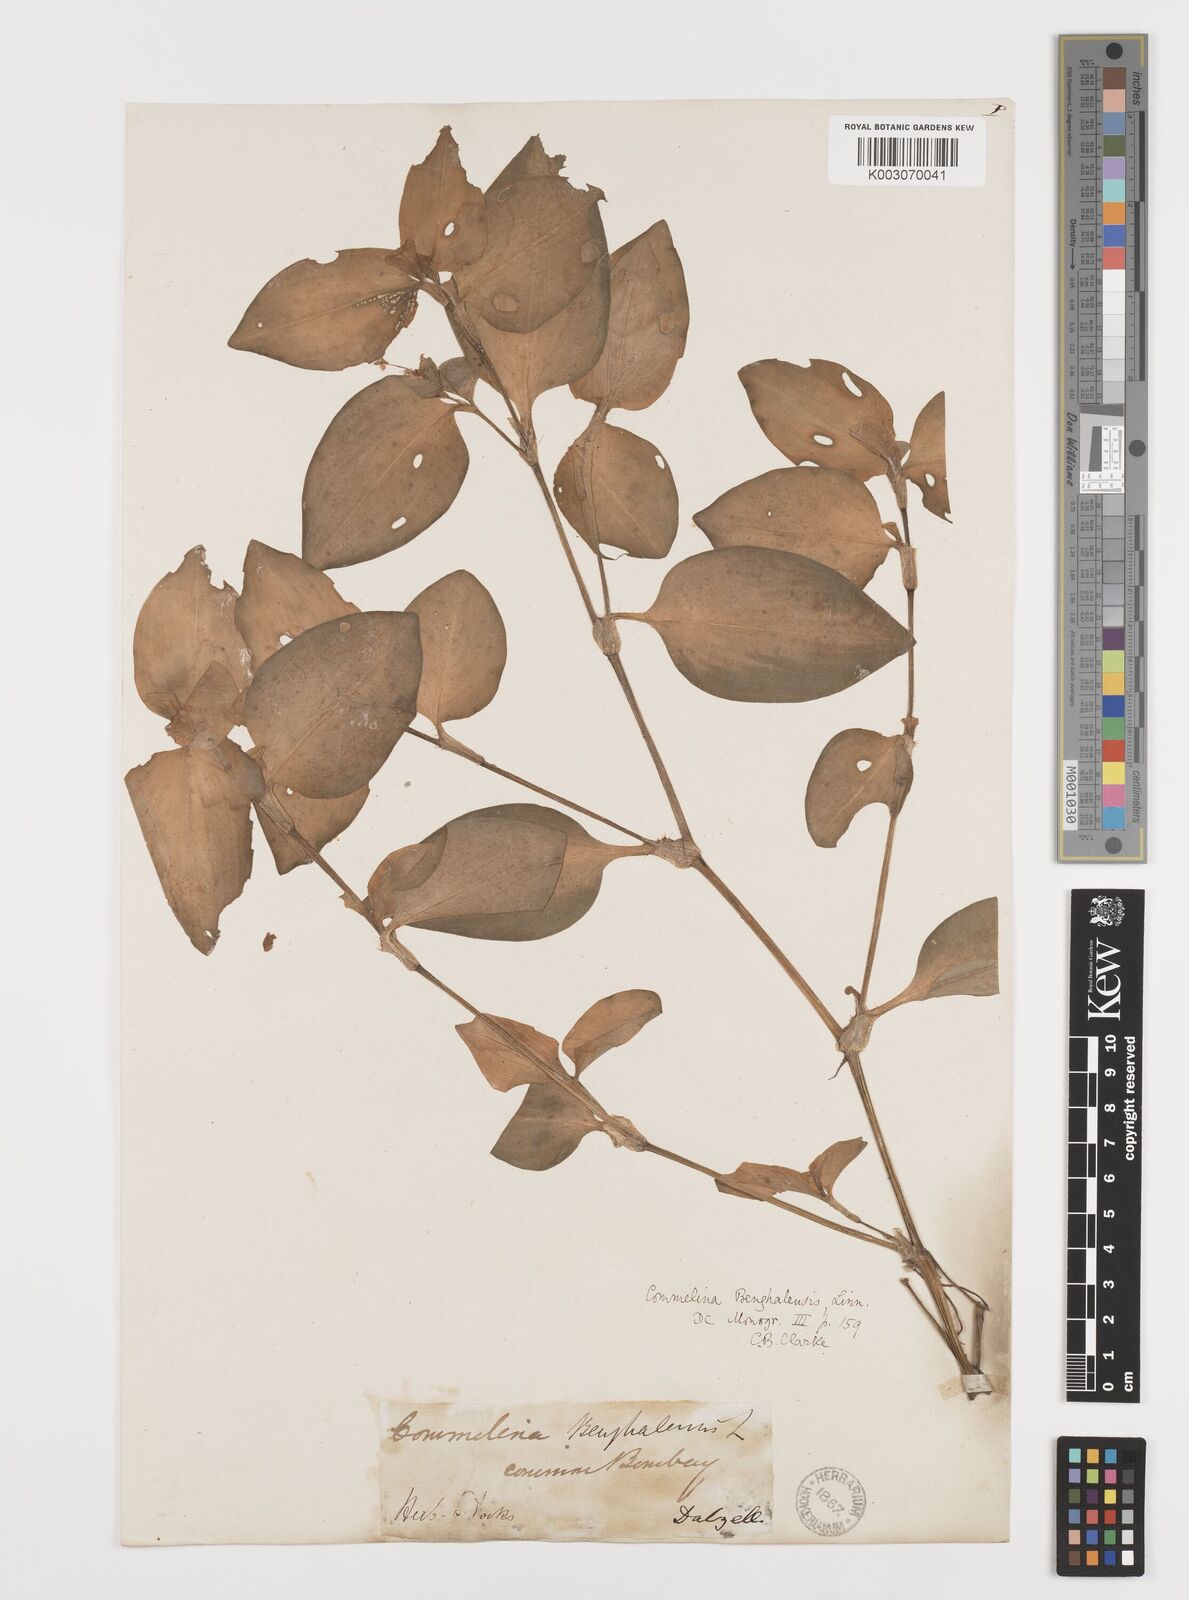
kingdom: Plantae
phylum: Tracheophyta
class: Liliopsida
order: Commelinales
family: Commelinaceae
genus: Commelina
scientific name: Commelina benghalensis
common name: Jio
